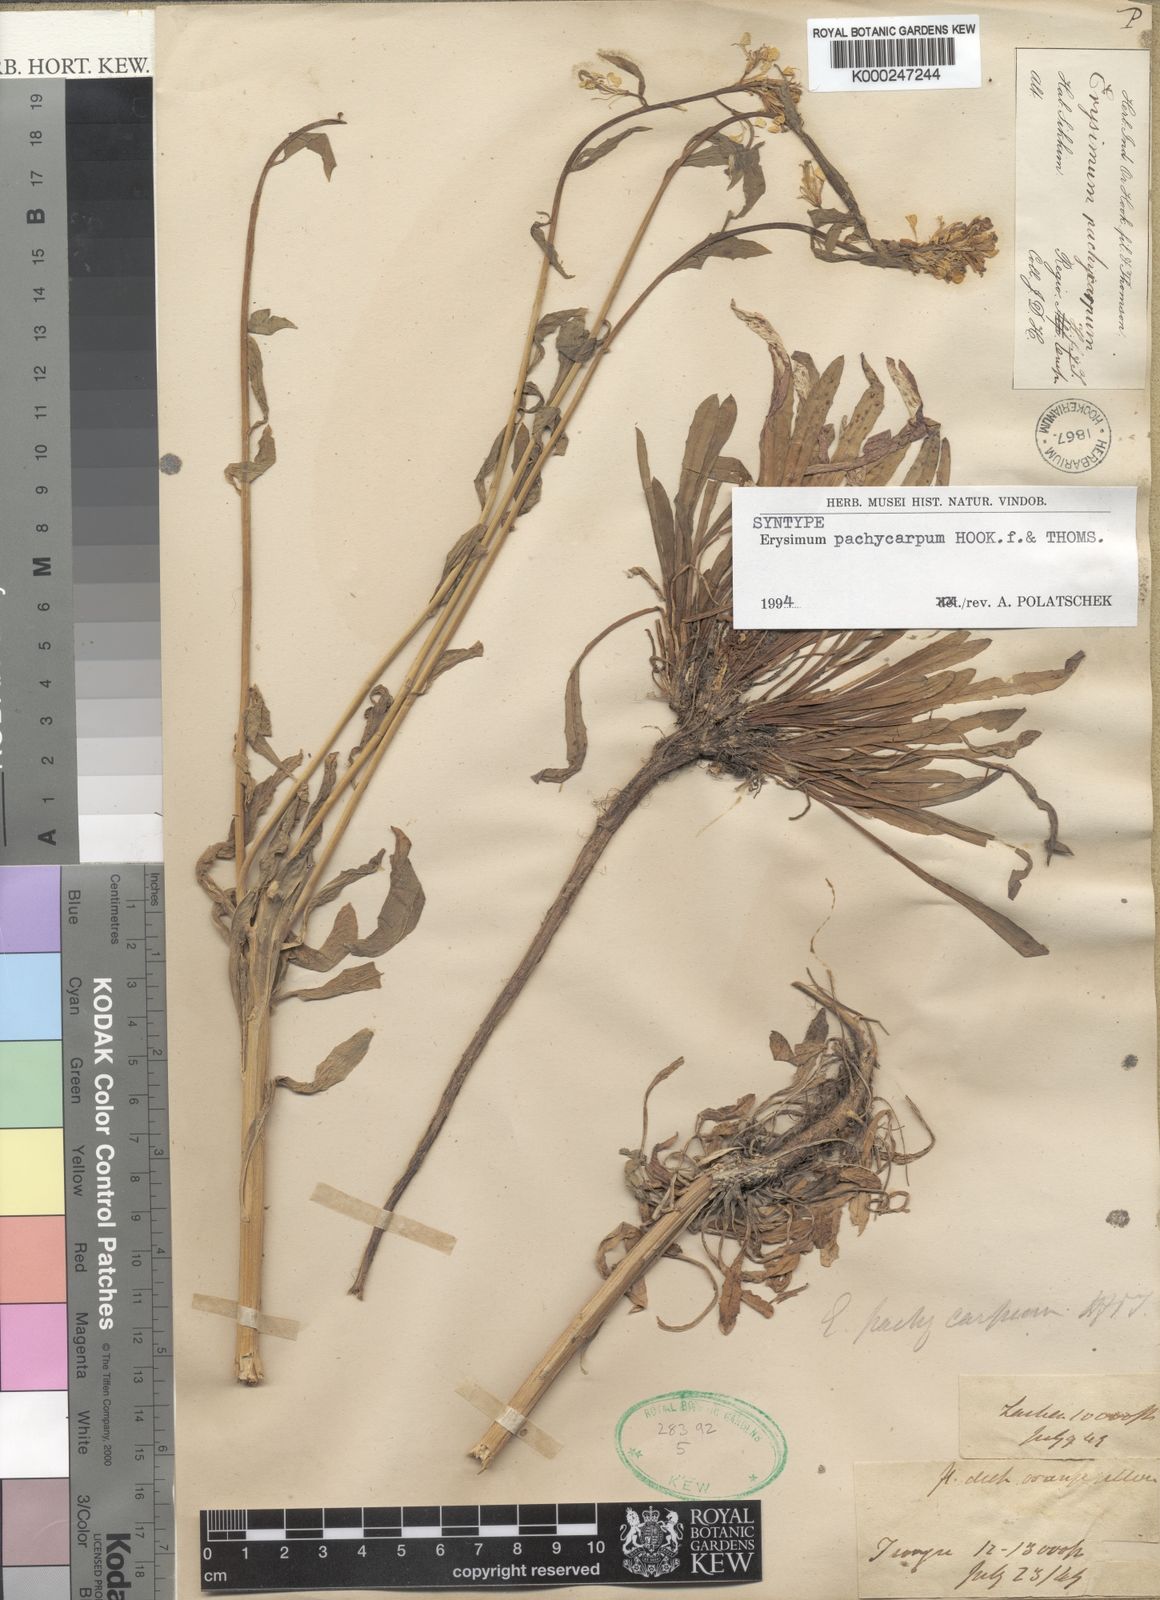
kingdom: Plantae
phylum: Tracheophyta
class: Magnoliopsida
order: Brassicales
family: Brassicaceae
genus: Erysimum
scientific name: Erysimum pachycarpum
